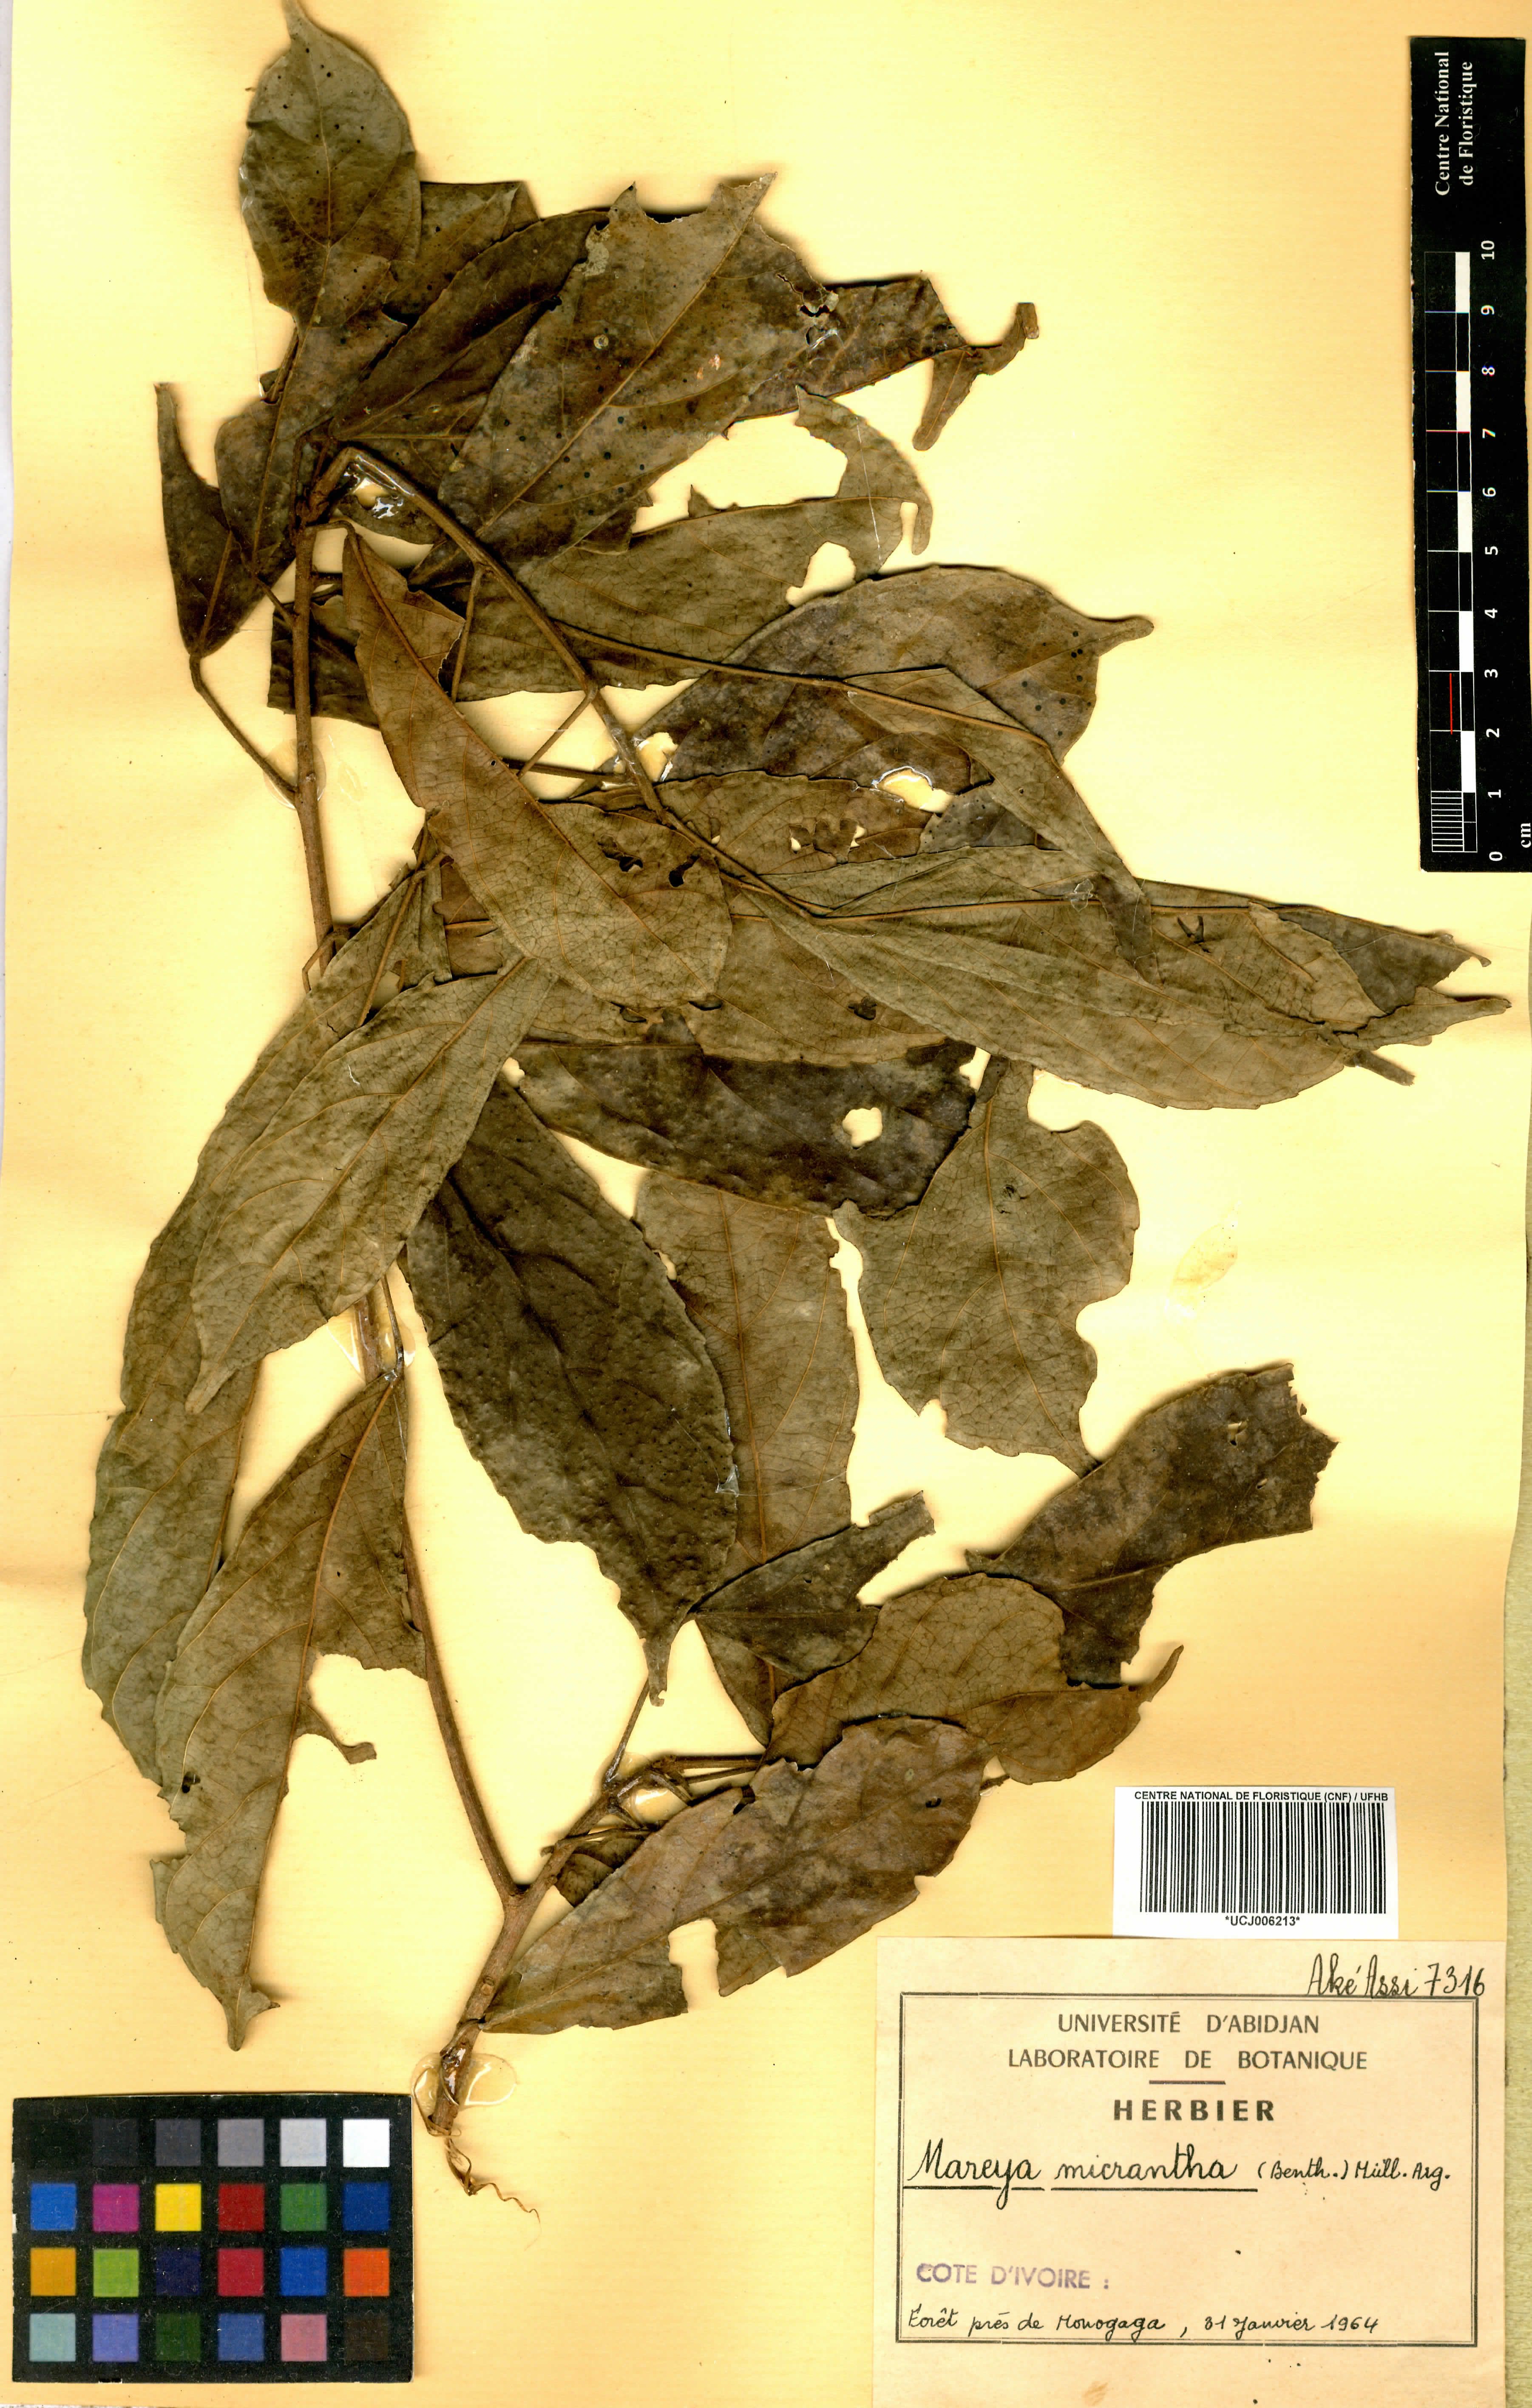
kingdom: Plantae
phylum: Tracheophyta
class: Magnoliopsida
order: Malpighiales
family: Euphorbiaceae
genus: Mareya
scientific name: Mareya micrantha
